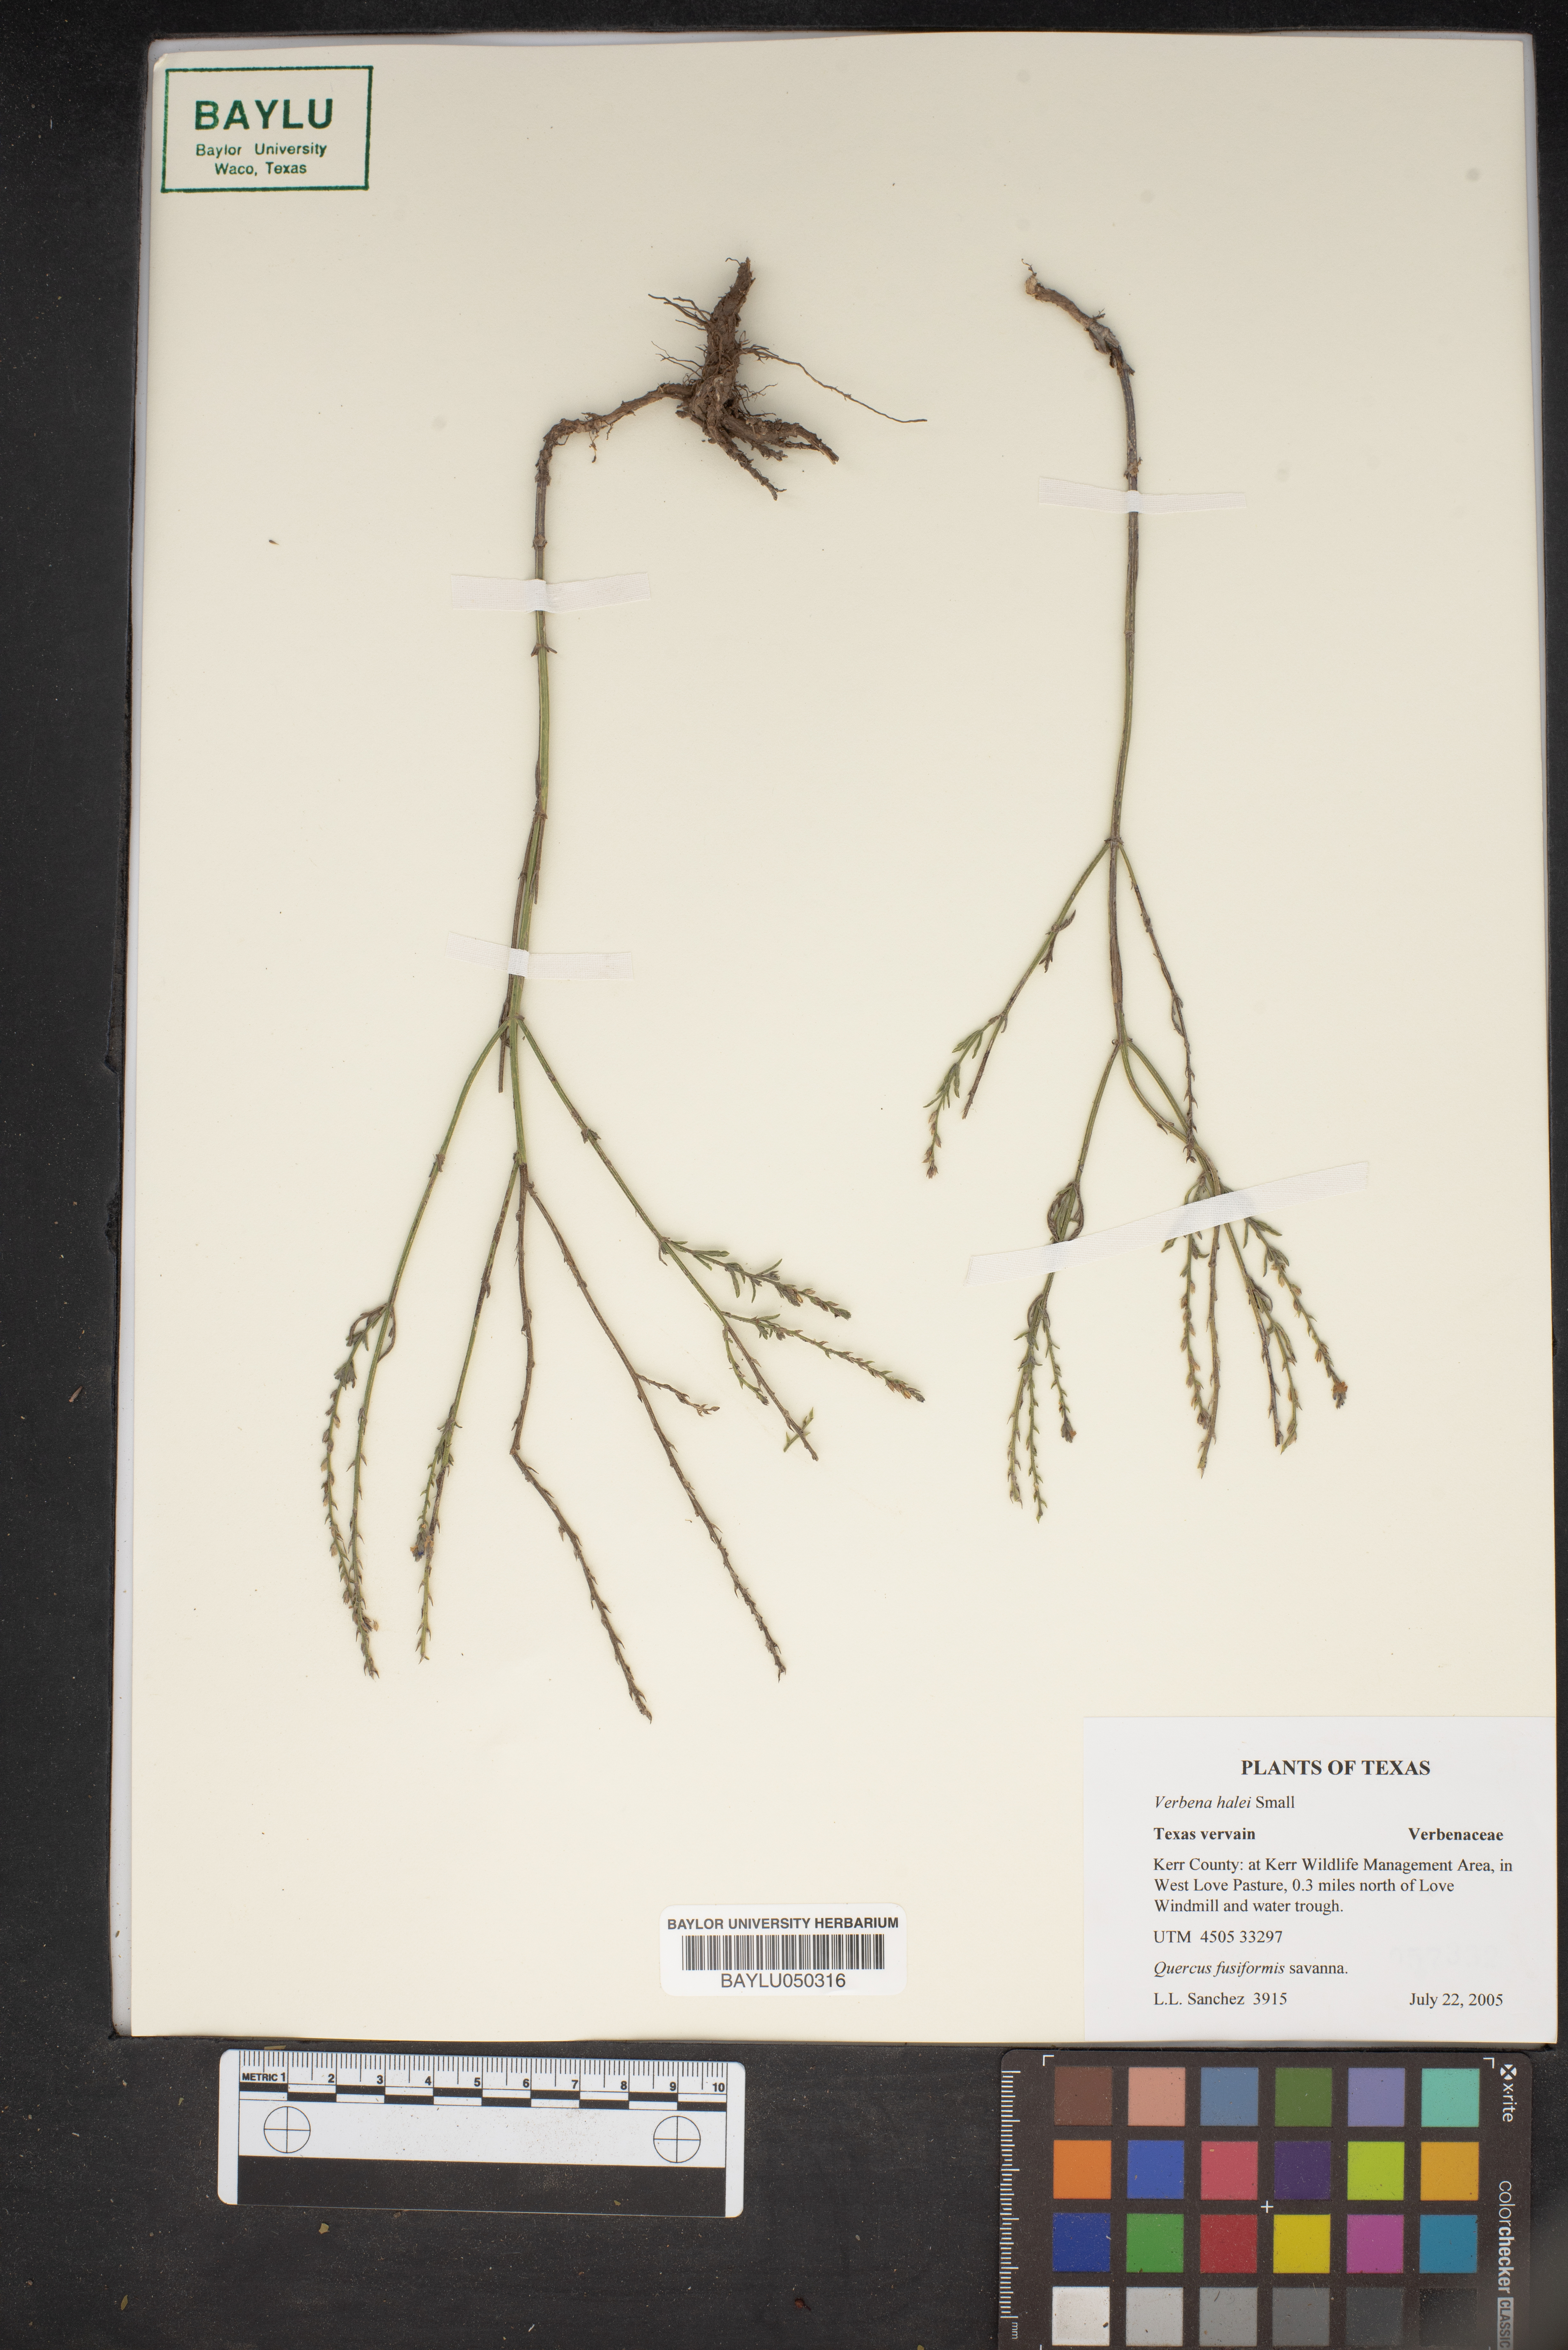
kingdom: Plantae
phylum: Tracheophyta
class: Magnoliopsida
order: Lamiales
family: Verbenaceae
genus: Verbena
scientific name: Verbena halei
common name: Texas vervain
